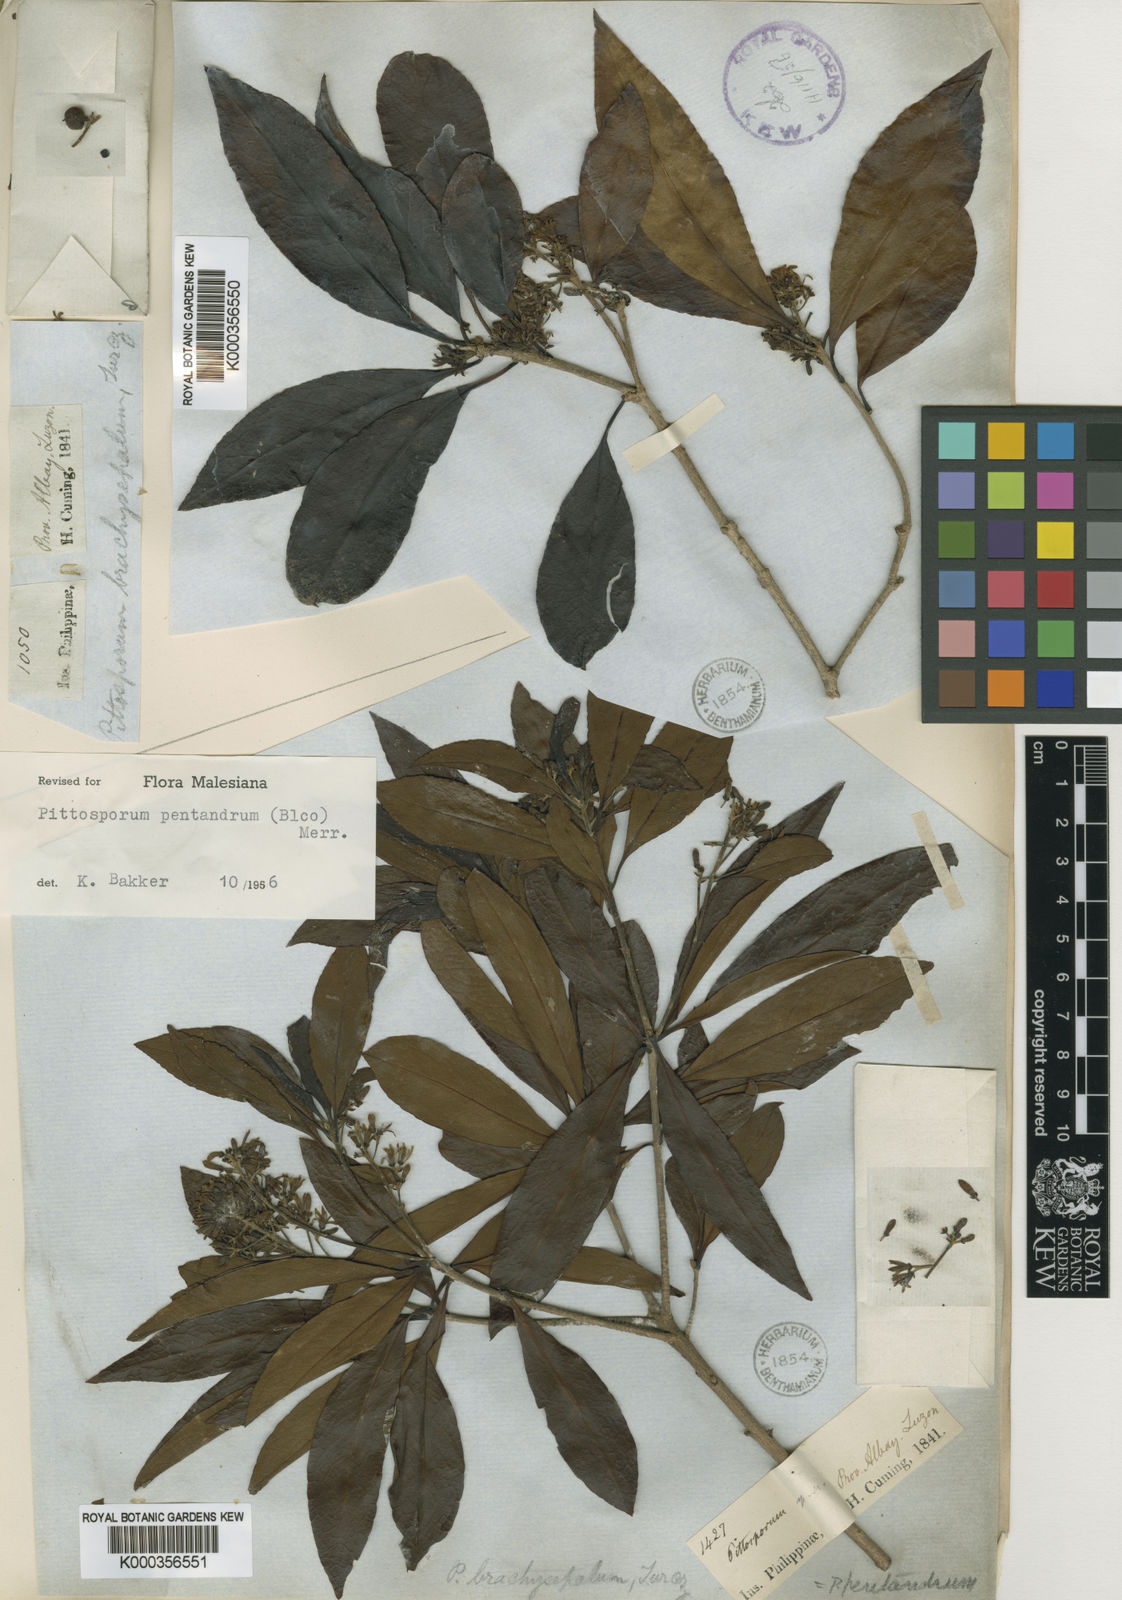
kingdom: Plantae
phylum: Tracheophyta
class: Magnoliopsida
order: Apiales
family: Pittosporaceae
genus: Pittosporum
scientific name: Pittosporum pentandrum
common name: Taiwanese cheesewood
